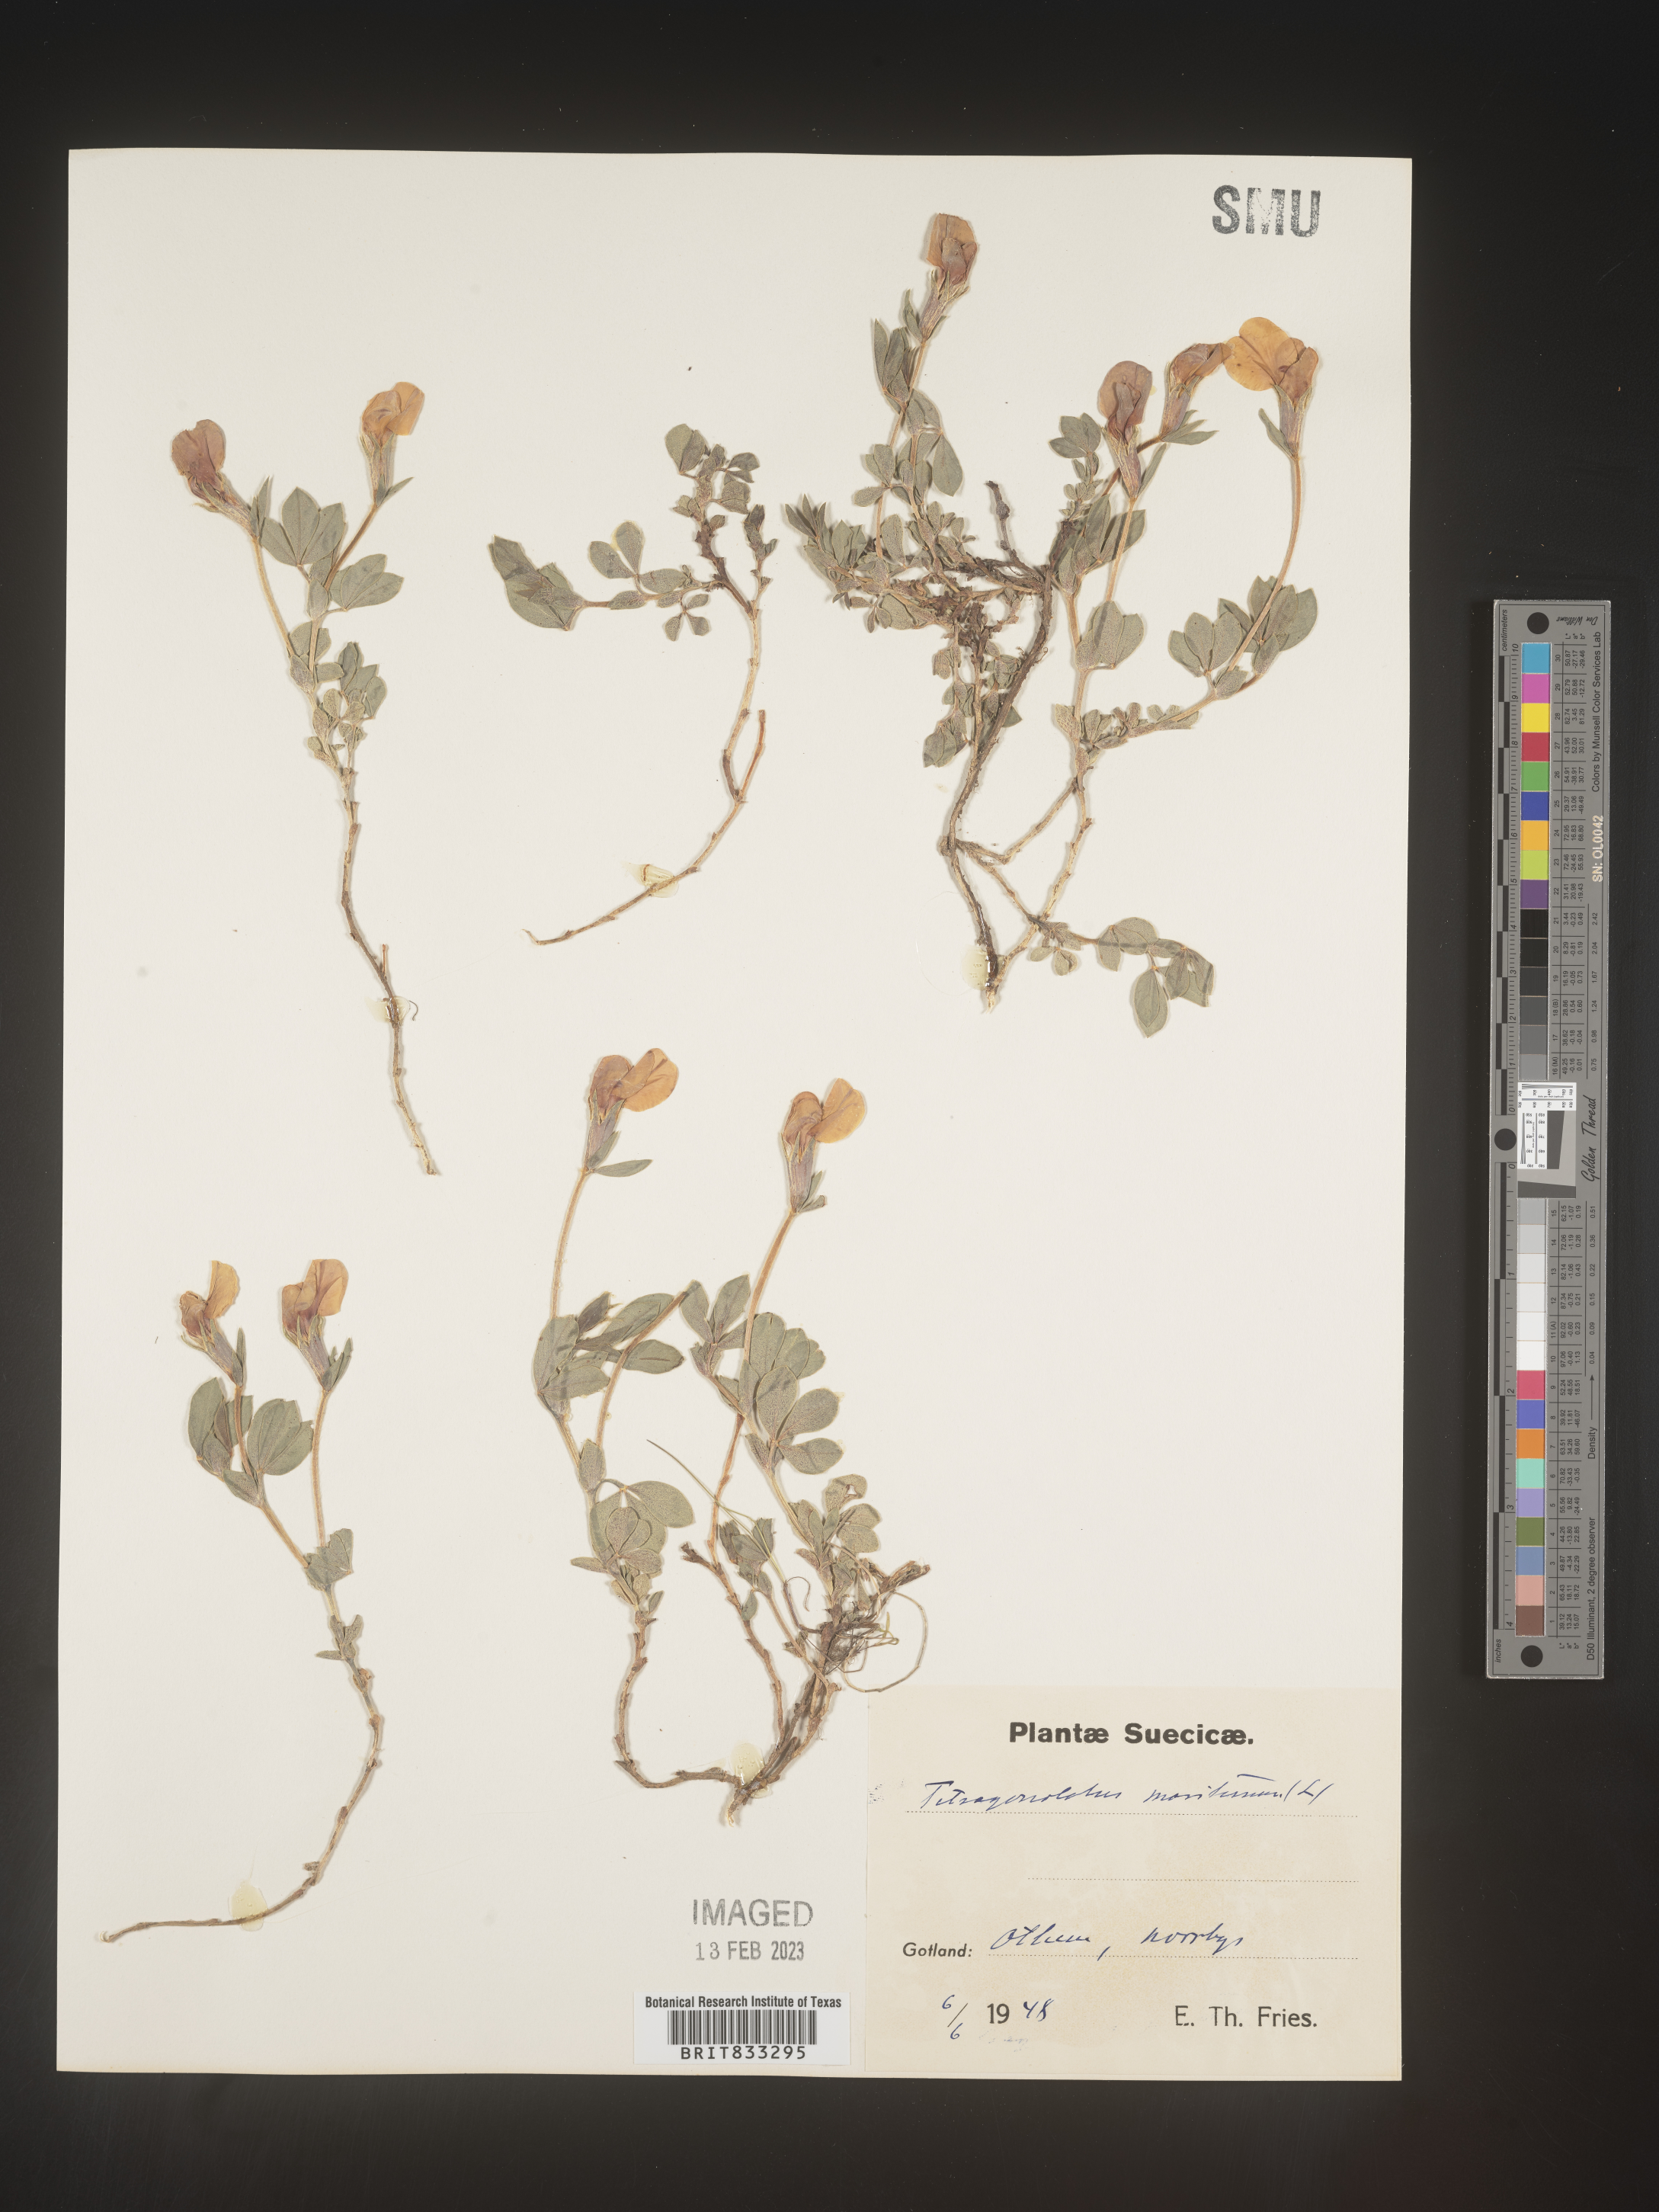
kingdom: Plantae
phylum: Tracheophyta
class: Magnoliopsida
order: Fabales
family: Fabaceae
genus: Lotus
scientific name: Lotus
